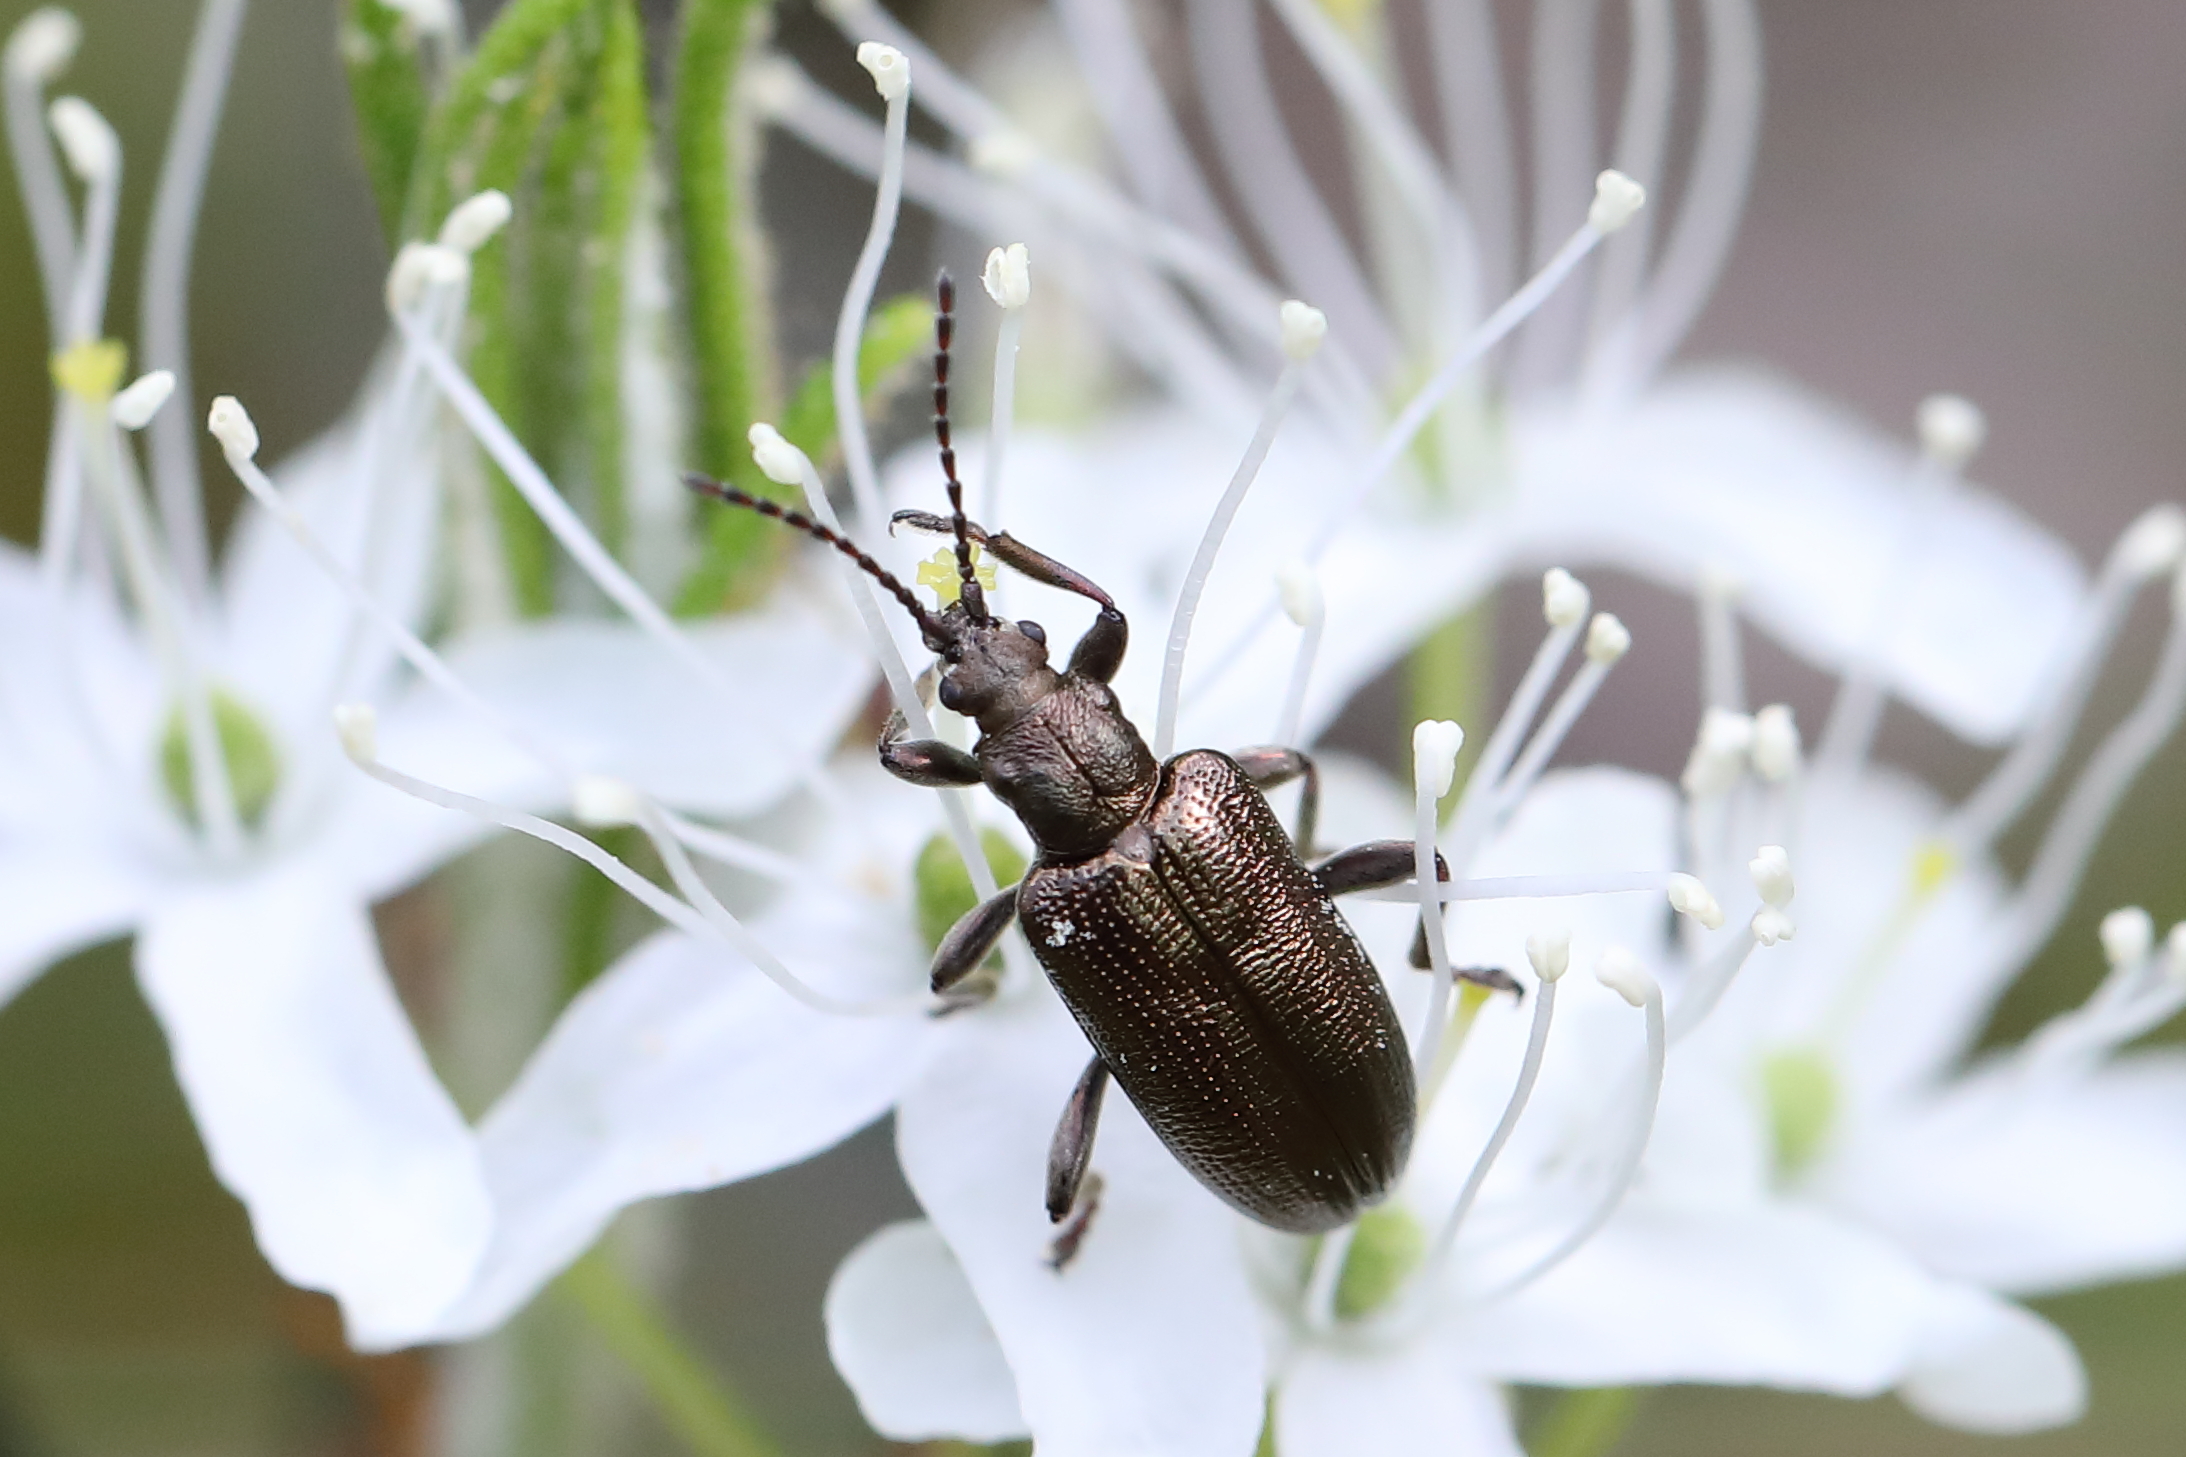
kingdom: Animalia
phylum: Arthropoda
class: Insecta
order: Coleoptera
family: Chrysomelidae
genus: Plateumaris
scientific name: Plateumaris discolor
